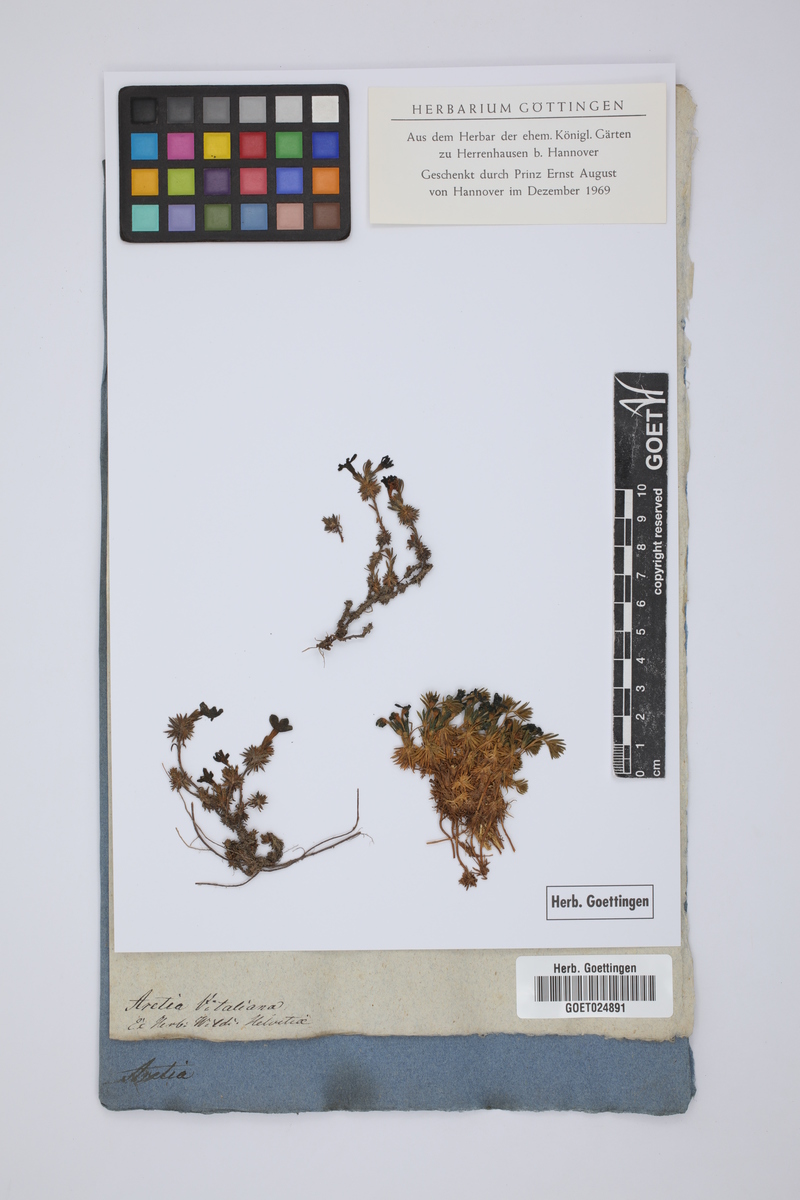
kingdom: Plantae
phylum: Tracheophyta
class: Magnoliopsida
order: Ericales
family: Primulaceae
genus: Androsace
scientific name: Androsace vitaliana
